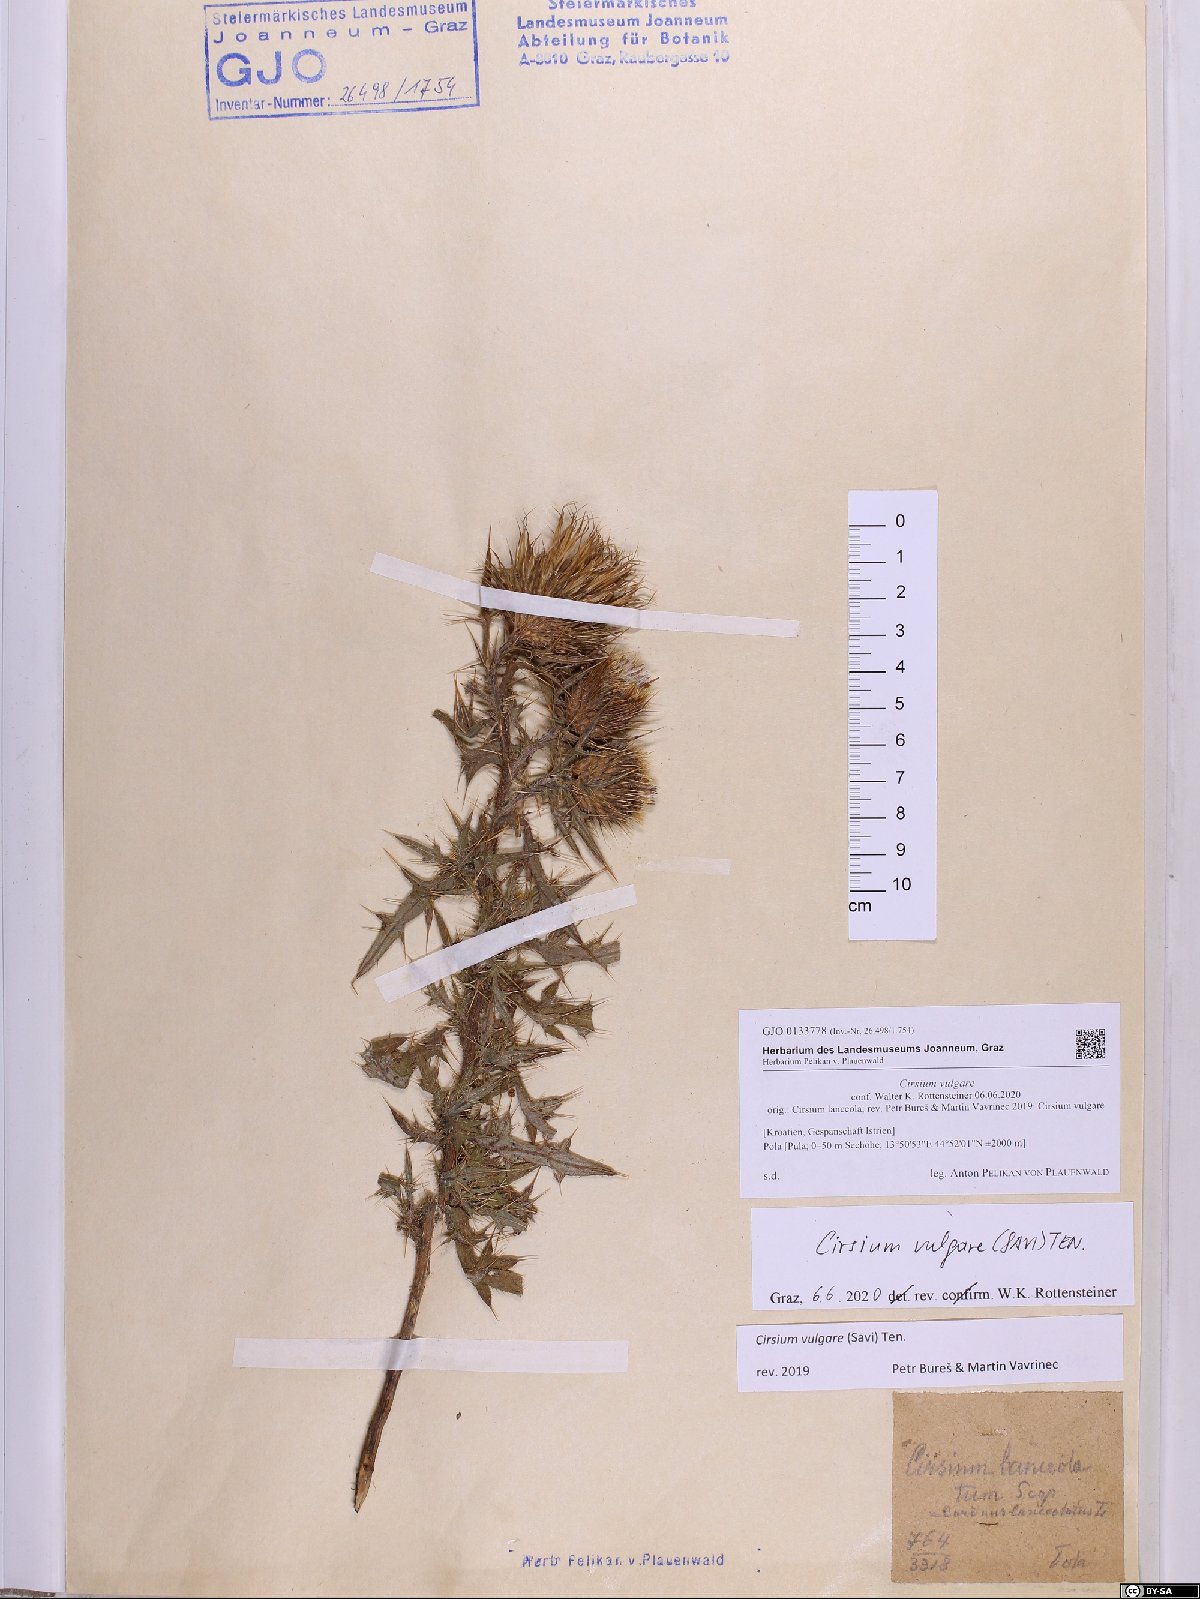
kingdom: Plantae
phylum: Tracheophyta
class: Magnoliopsida
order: Asterales
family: Asteraceae
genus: Cirsium
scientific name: Cirsium vulgare
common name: Bull thistle
